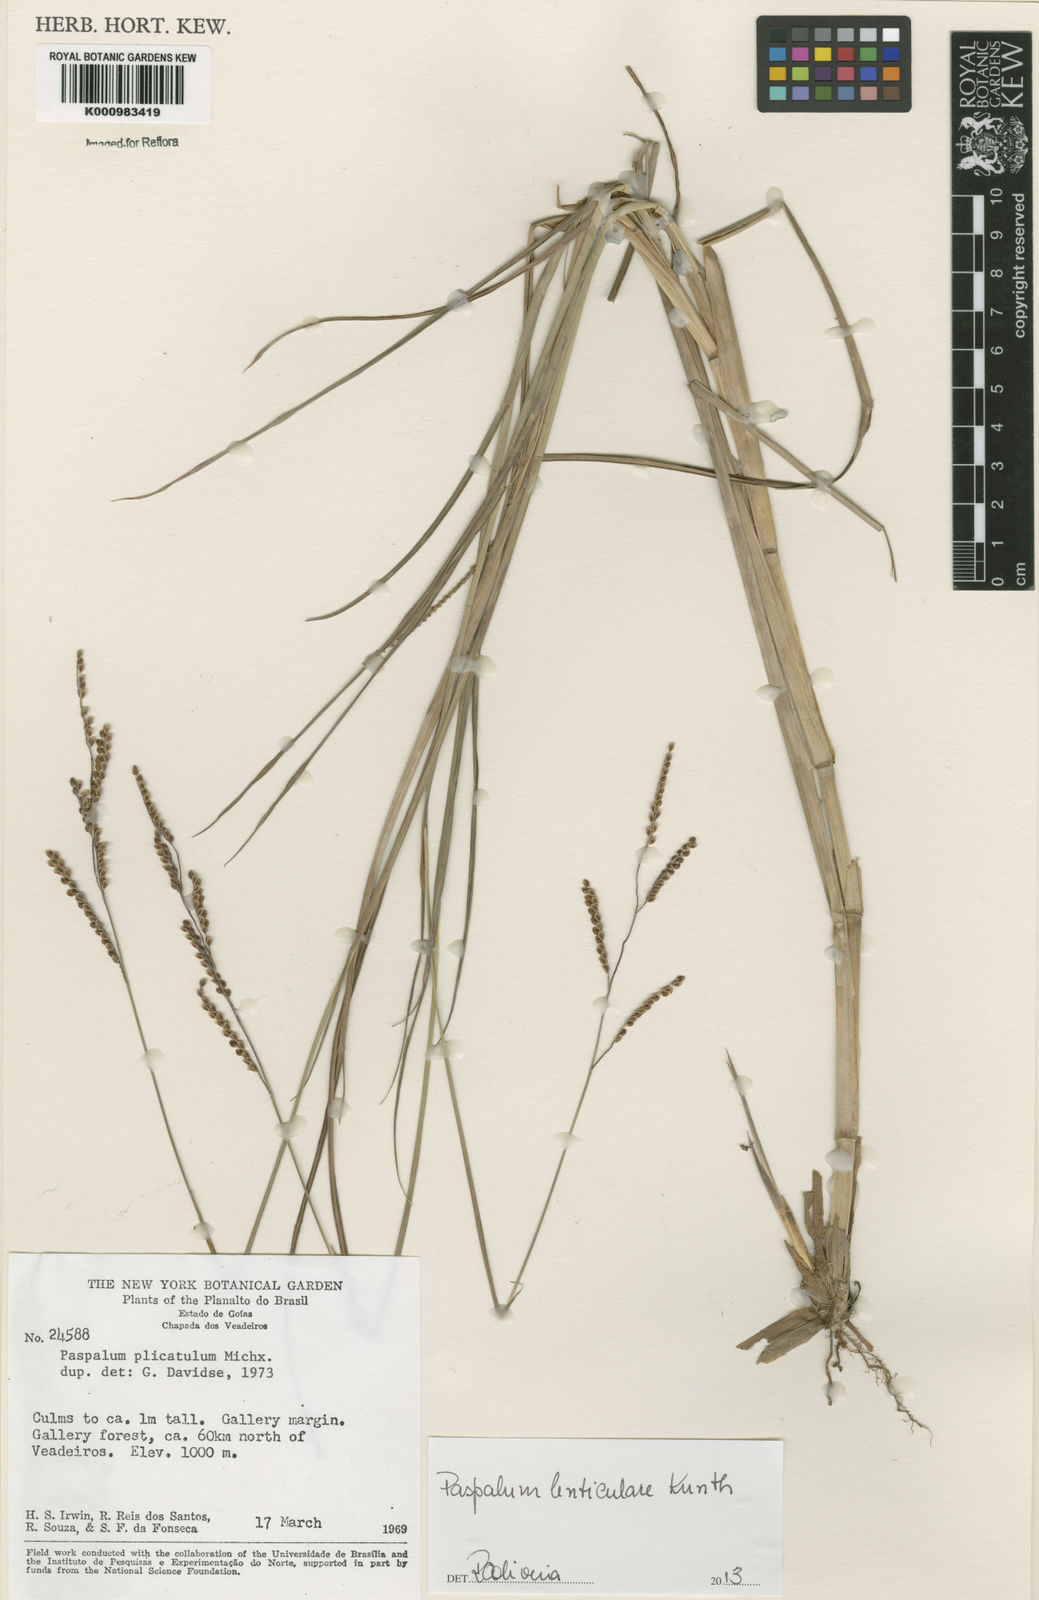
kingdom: Plantae
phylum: Tracheophyta
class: Liliopsida
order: Poales
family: Poaceae
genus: Paspalum
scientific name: Paspalum plicatulum
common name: Top paspalum
